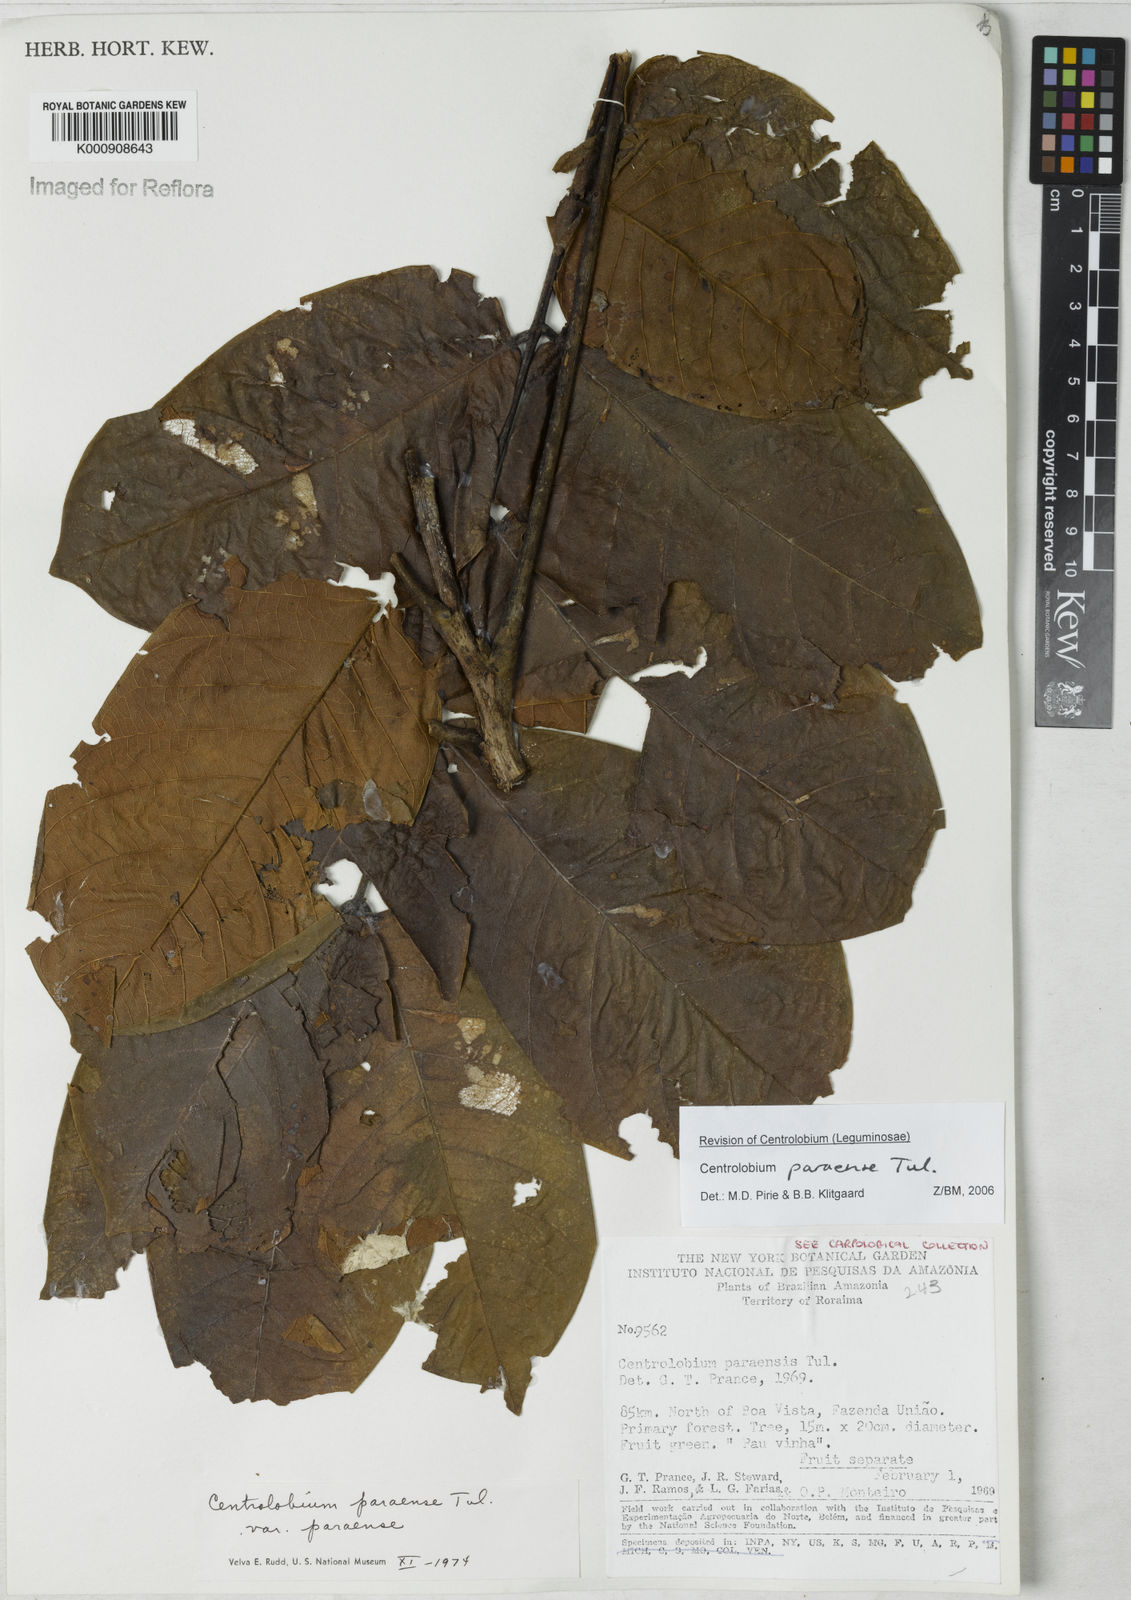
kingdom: Plantae
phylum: Tracheophyta
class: Magnoliopsida
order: Fabales
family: Fabaceae
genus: Centrolobium
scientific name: Centrolobium paraense
